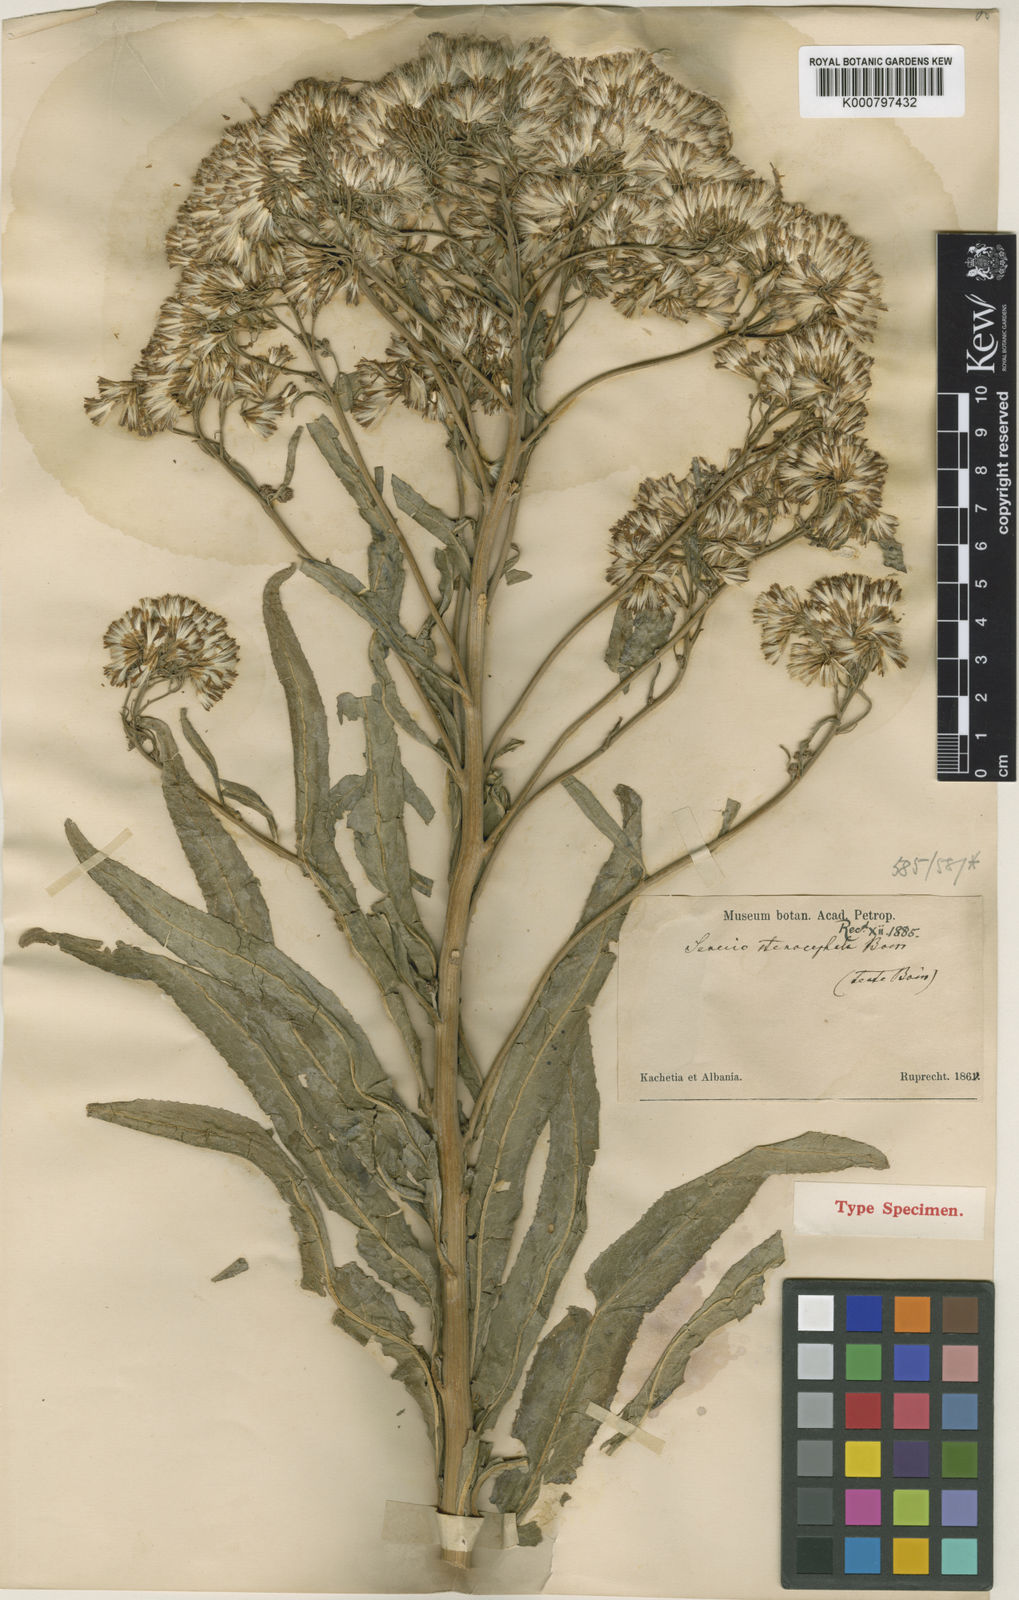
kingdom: Plantae
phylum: Tracheophyta
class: Magnoliopsida
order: Asterales
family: Asteraceae
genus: Pojarkovia
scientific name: Pojarkovia pojarkovae
